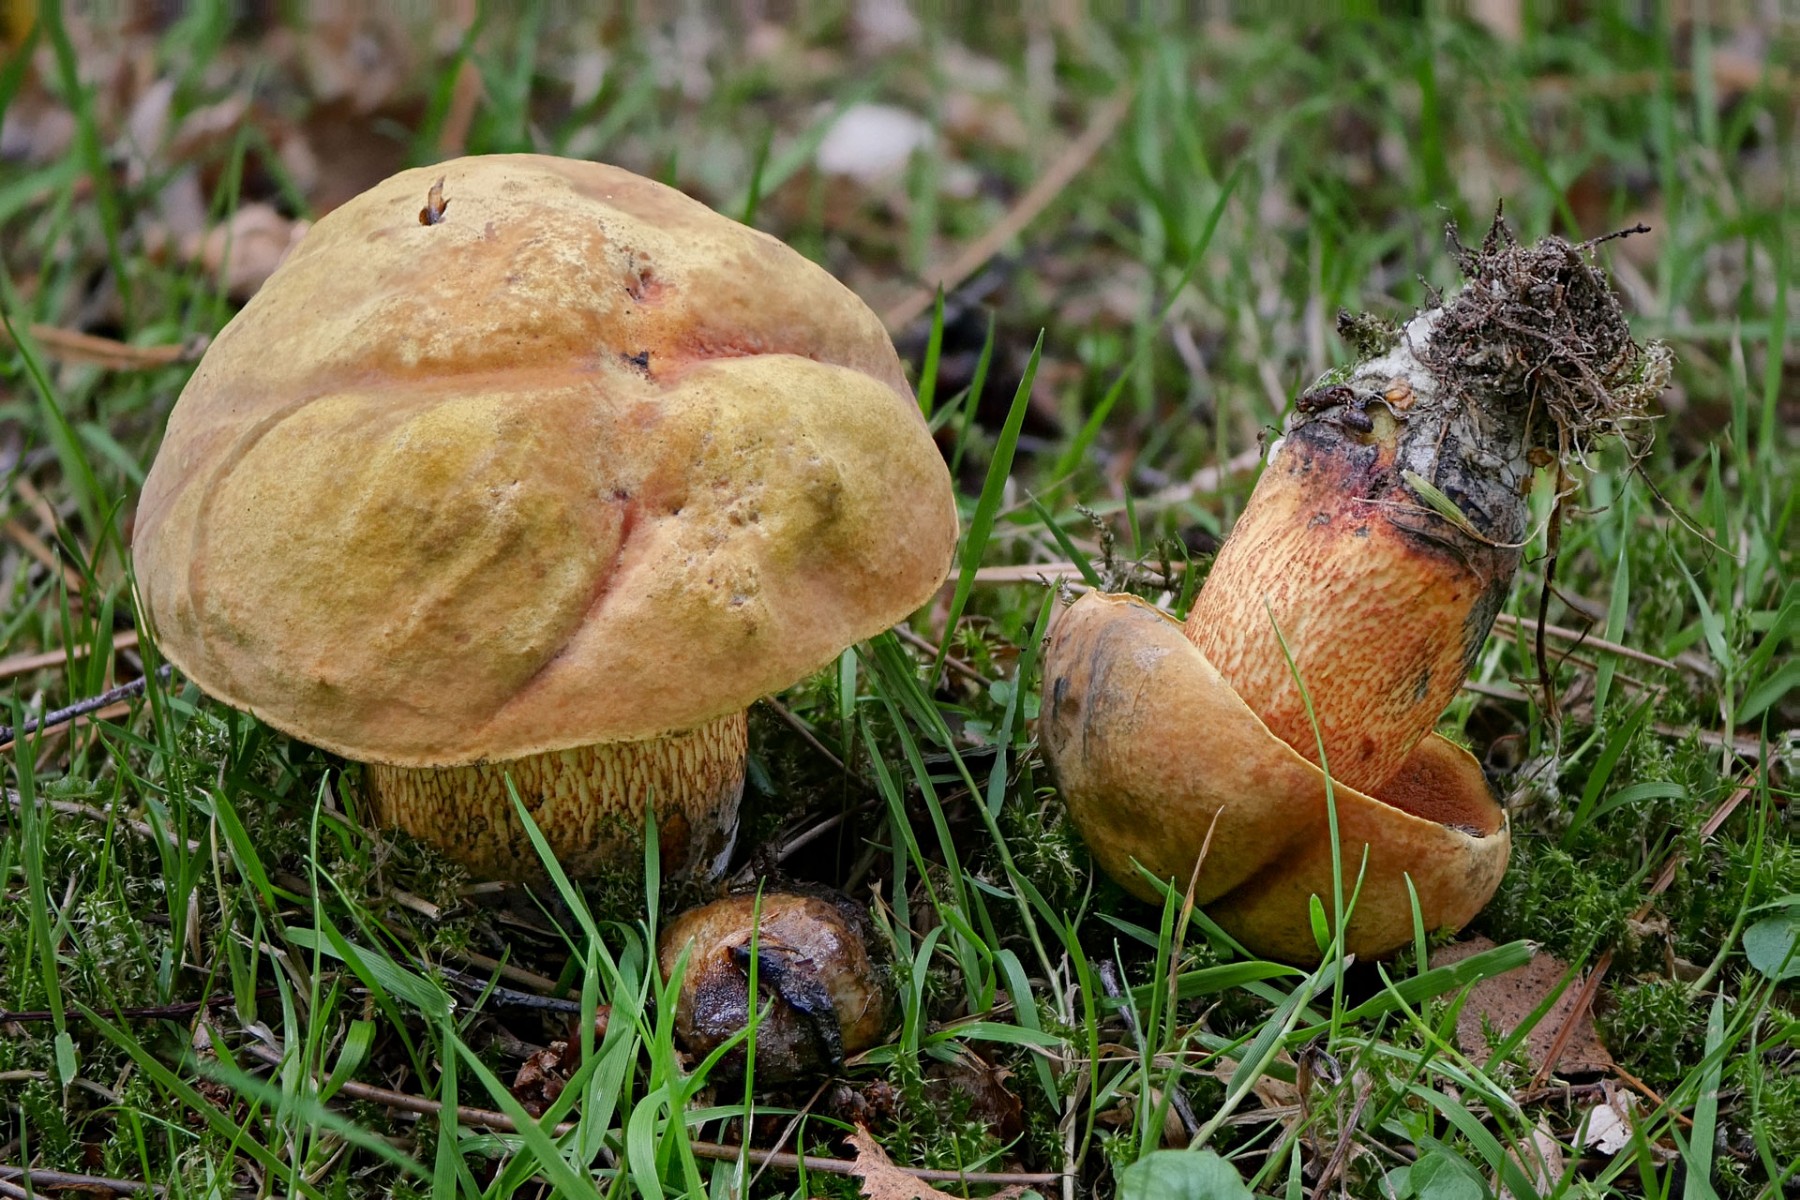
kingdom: Fungi
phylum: Basidiomycota
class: Agaricomycetes
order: Boletales
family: Boletaceae
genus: Suillellus
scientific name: Suillellus luridus
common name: netstokket indigorørhat
